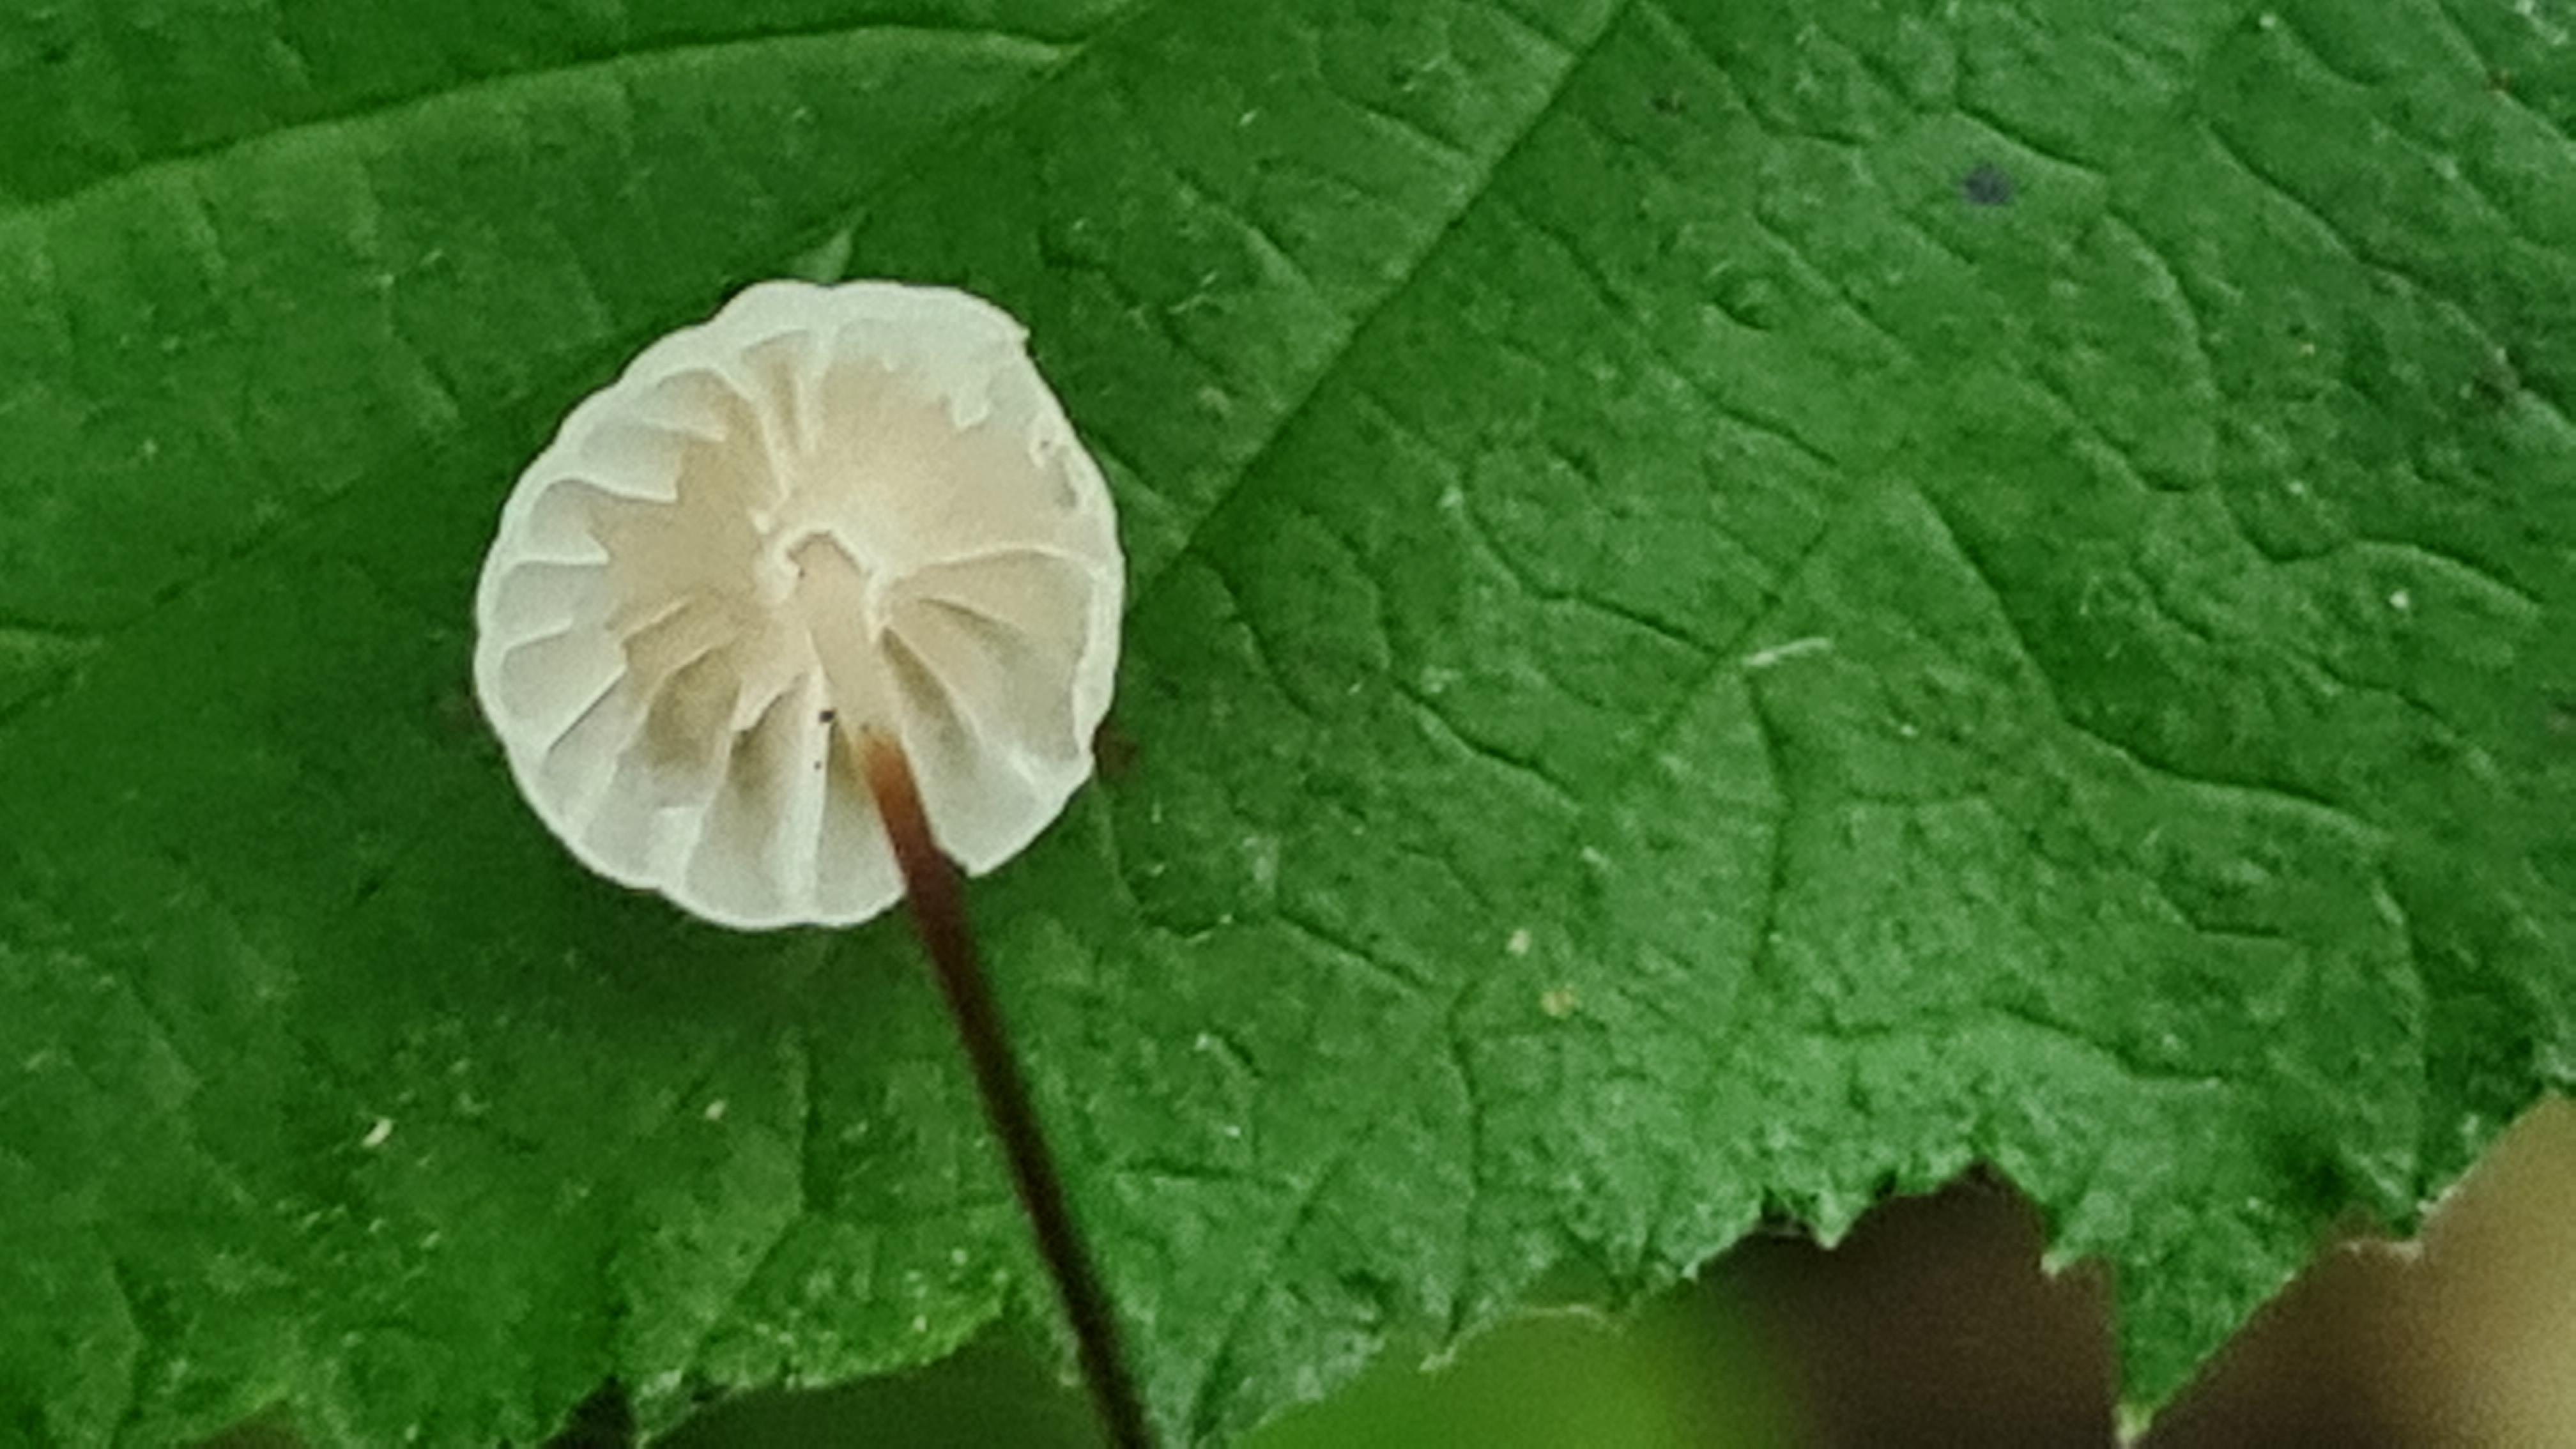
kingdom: Fungi
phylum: Basidiomycota
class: Agaricomycetes
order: Agaricales
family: Marasmiaceae
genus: Marasmius
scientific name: Marasmius rotula
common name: hjul-bruskhat
